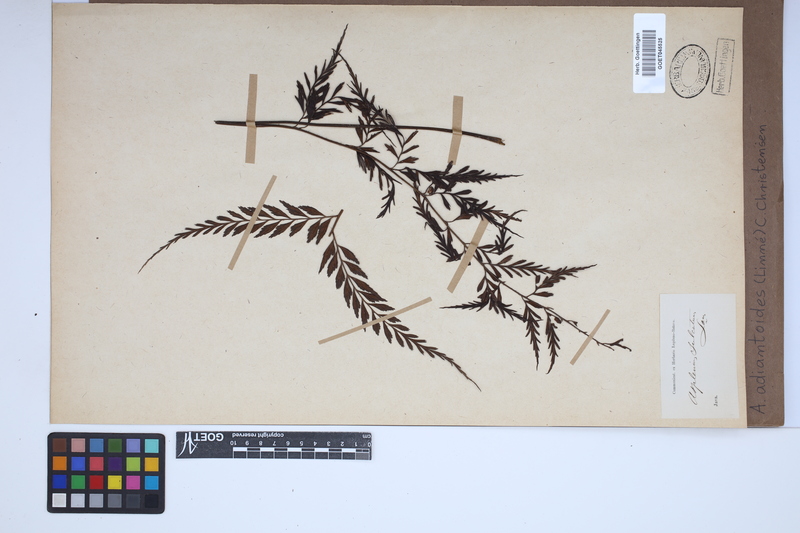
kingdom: Plantae
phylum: Tracheophyta
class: Polypodiopsida
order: Polypodiales
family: Aspleniaceae
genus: Asplenium
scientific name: Asplenium aethiopicum
